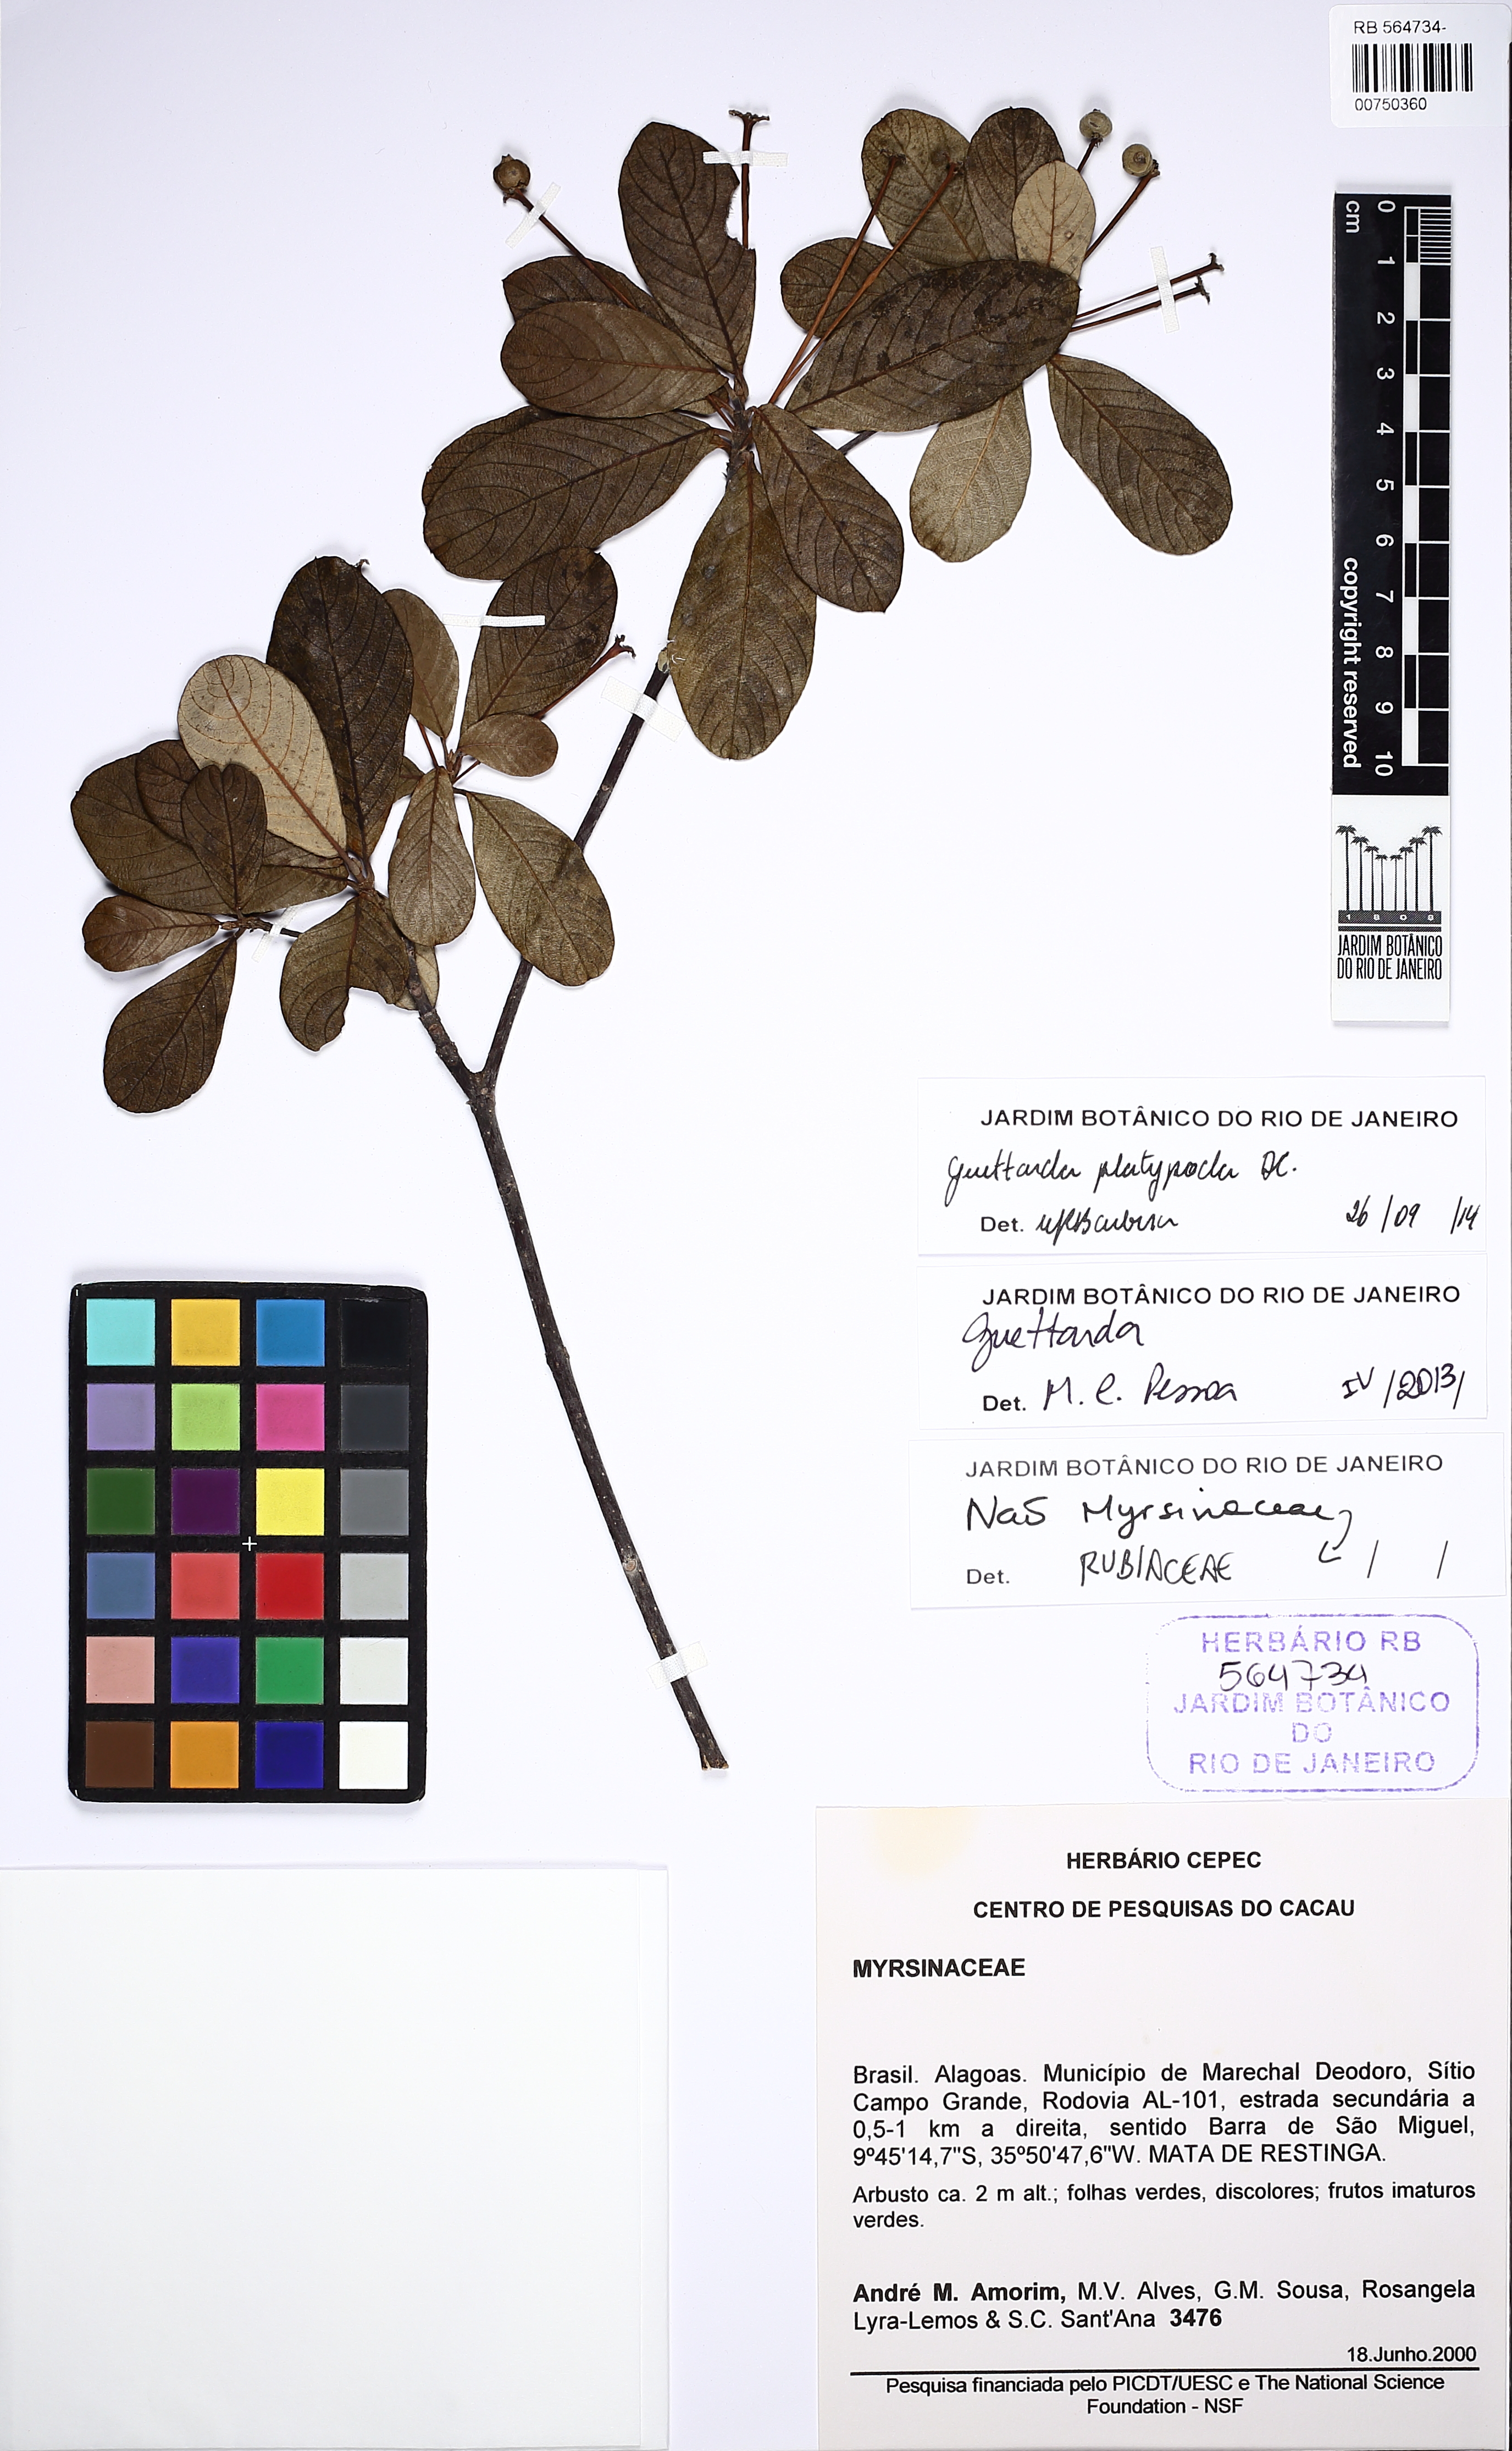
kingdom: Plantae
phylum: Tracheophyta
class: Magnoliopsida
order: Gentianales
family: Rubiaceae
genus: Guettarda
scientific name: Guettarda platypoda
